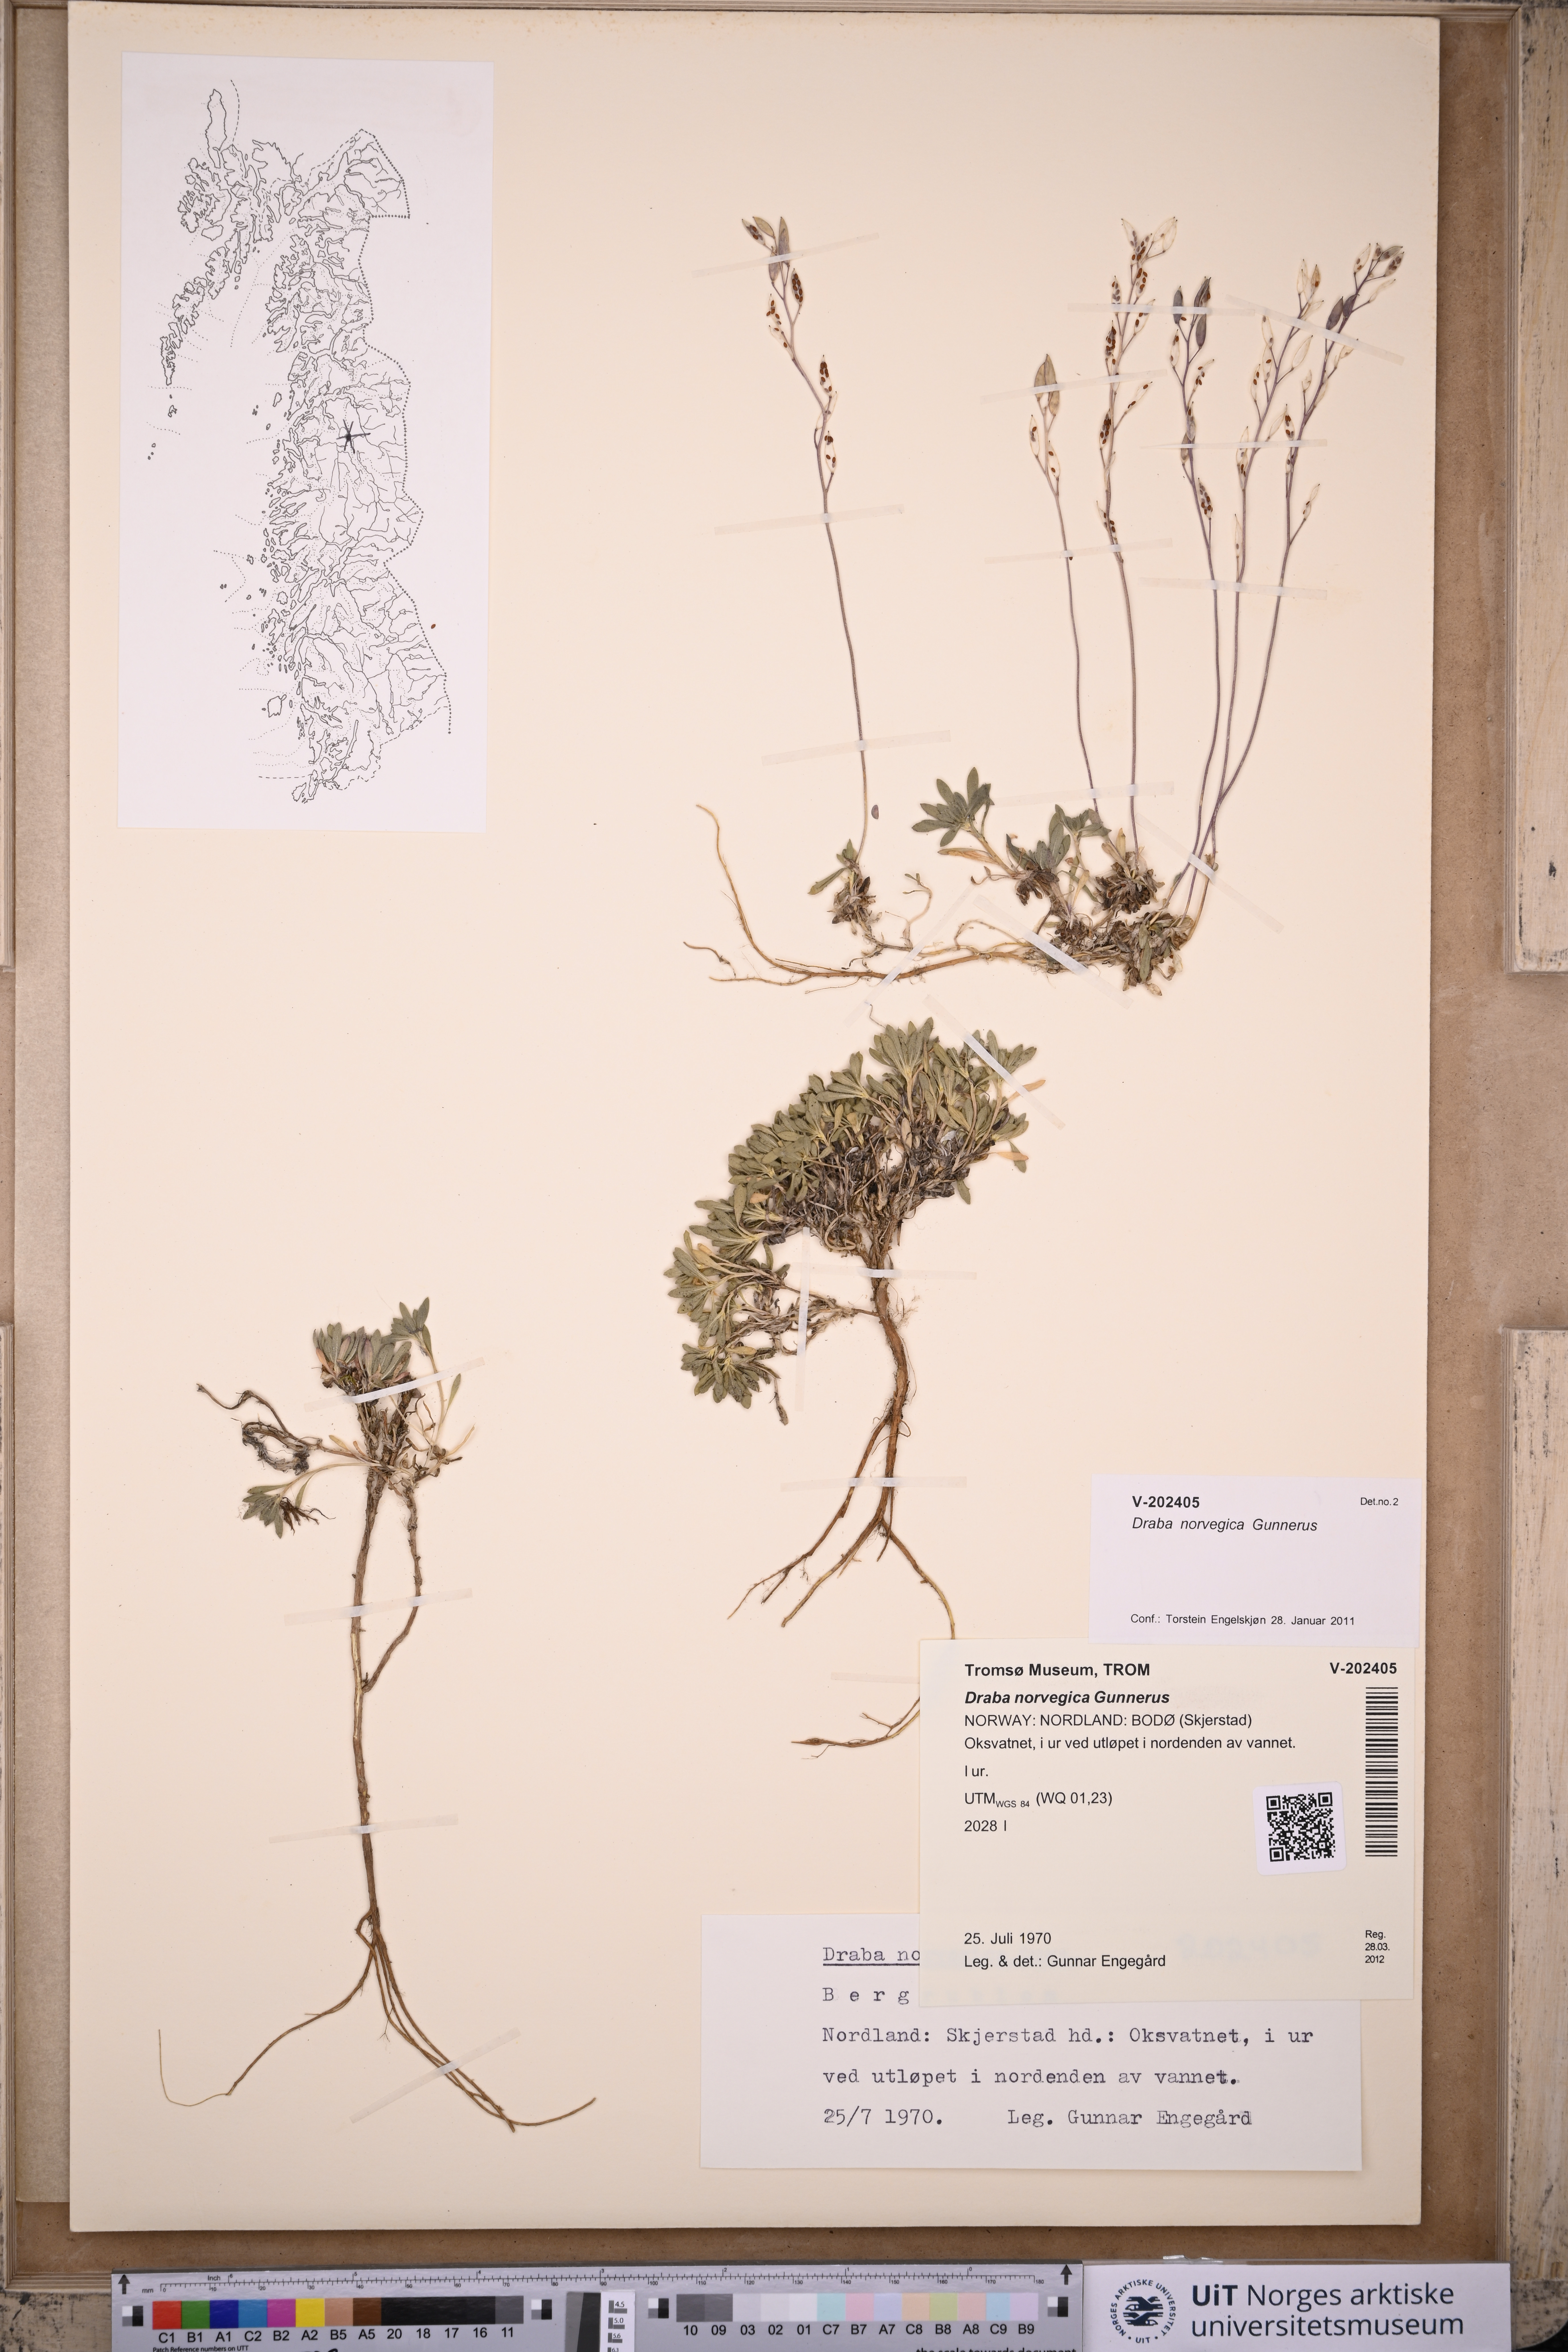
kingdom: Plantae
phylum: Tracheophyta
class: Magnoliopsida
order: Brassicales
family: Brassicaceae
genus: Draba
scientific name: Draba norvegica
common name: Rock whitlowgrass
